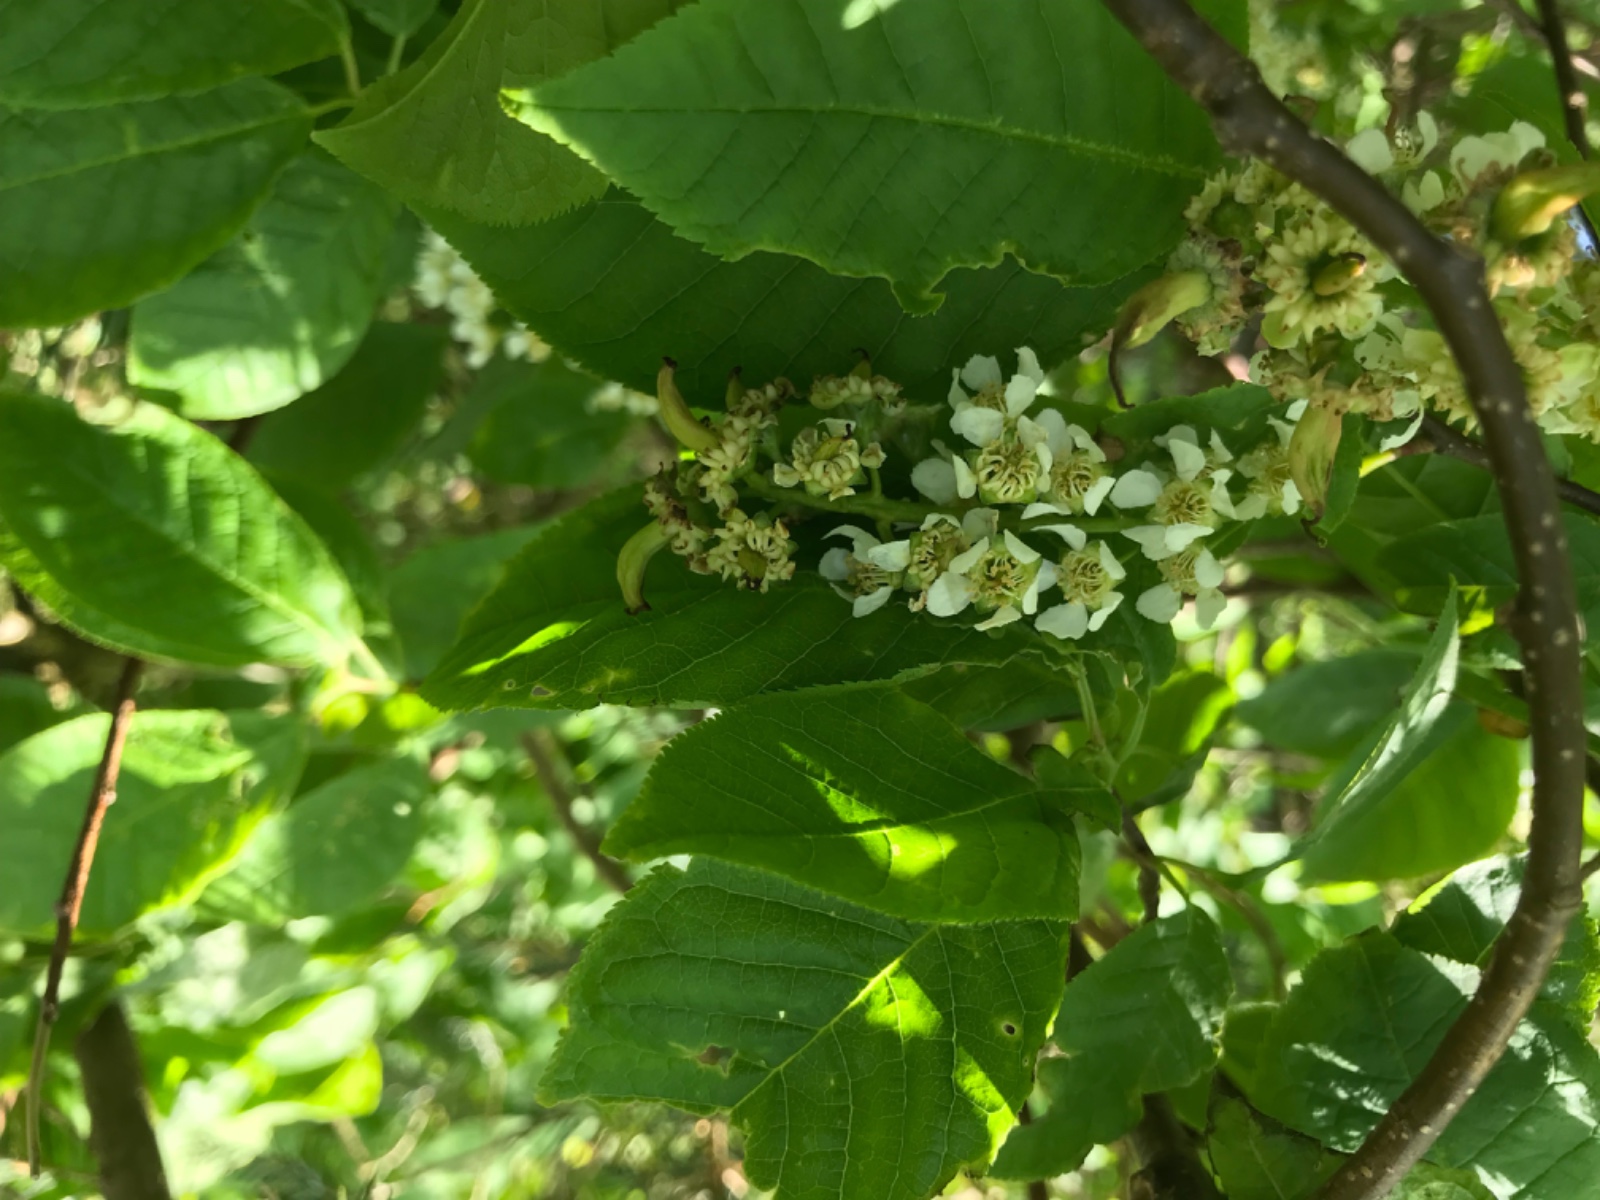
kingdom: Fungi
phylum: Ascomycota
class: Taphrinomycetes
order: Taphrinales
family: Taphrinaceae
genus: Taphrina
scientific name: Taphrina padi
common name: Bird cherry pocket
